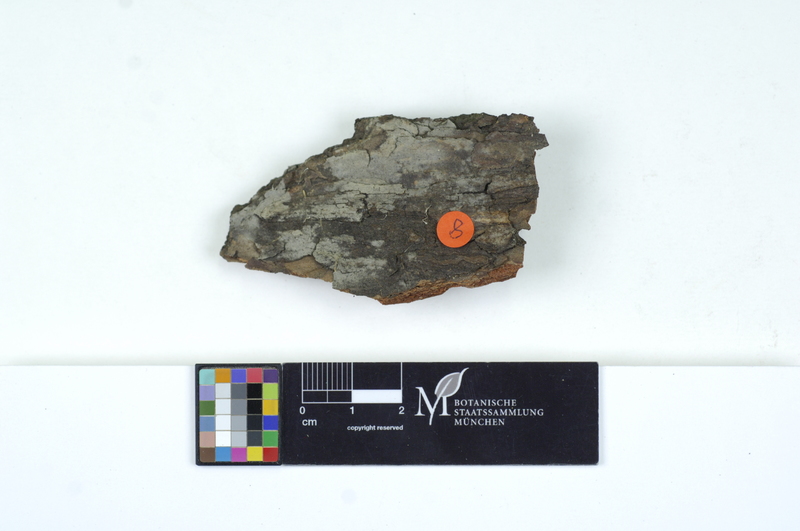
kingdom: Fungi
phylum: Basidiomycota
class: Agaricomycetes
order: Cantharellales
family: Ceratobasidiaceae
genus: Ceratobasidium
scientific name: Ceratobasidium cornigerum
